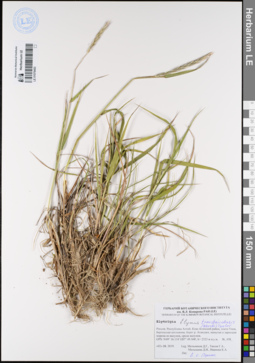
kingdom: Plantae
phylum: Tracheophyta
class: Liliopsida
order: Poales
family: Poaceae
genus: Elymus
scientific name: Elymus mutabilis
